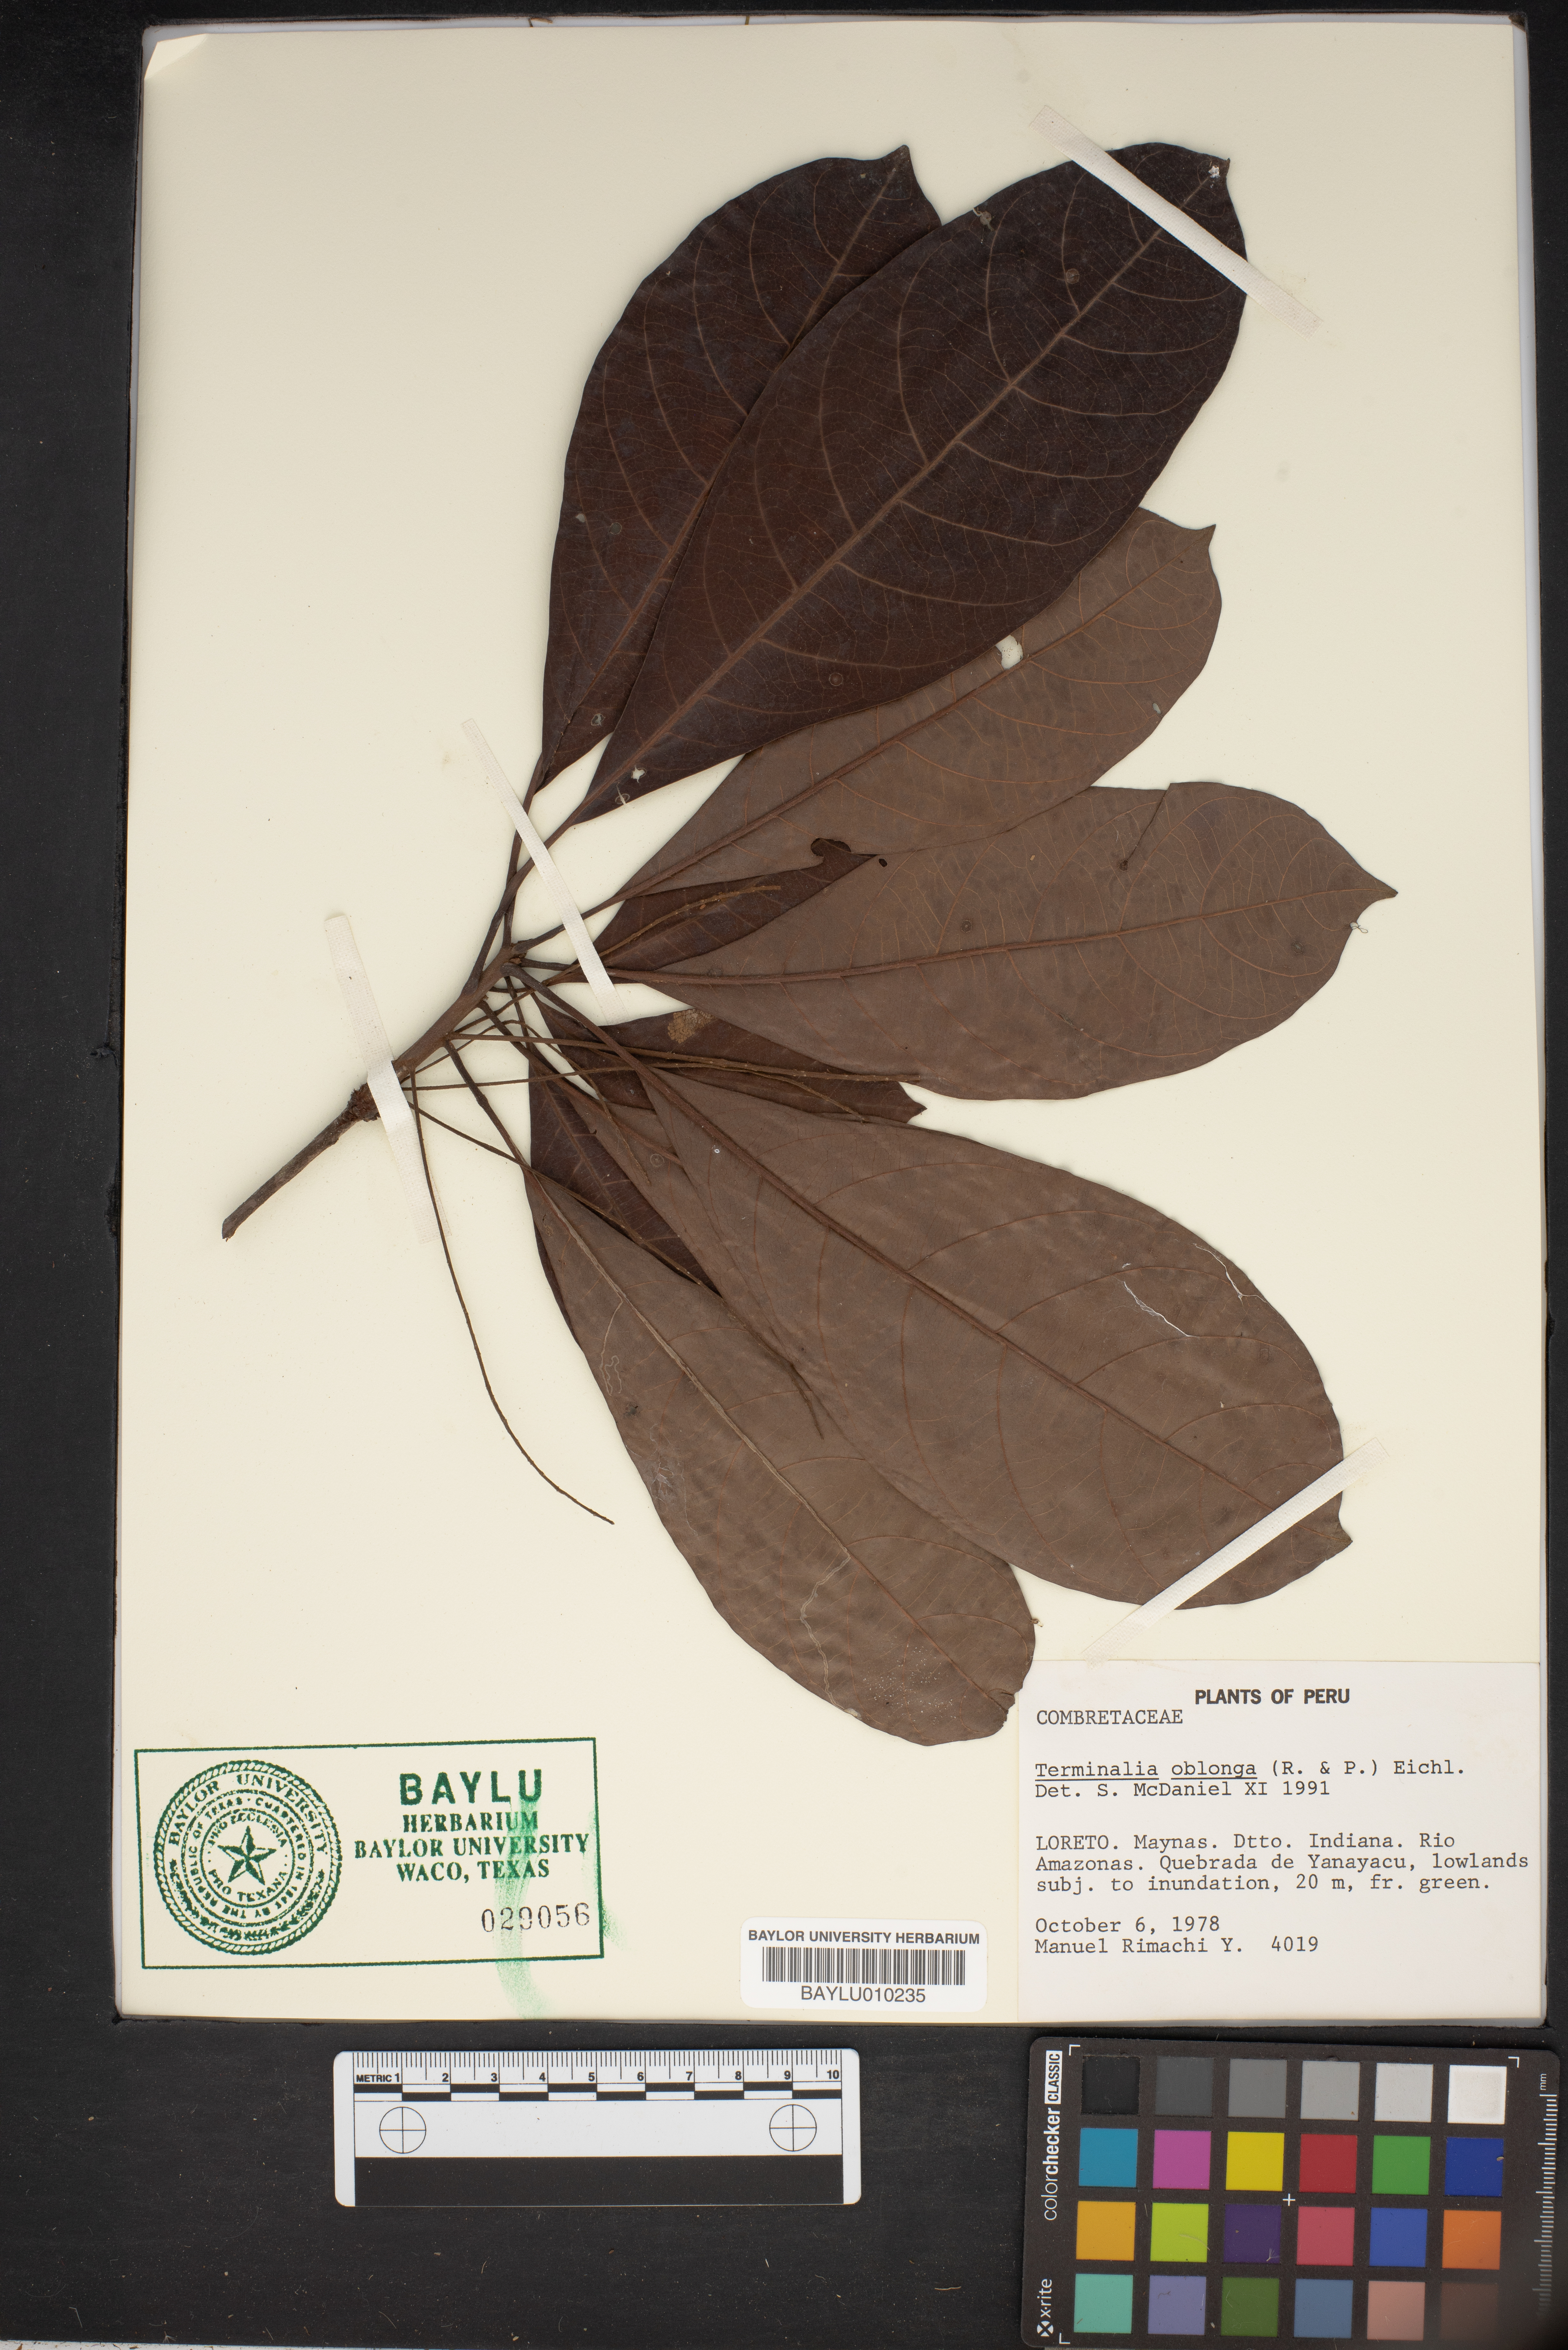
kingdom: Plantae
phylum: Tracheophyta
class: Magnoliopsida
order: Myrtales
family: Combretaceae
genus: Terminalia
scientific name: Terminalia oblonga
